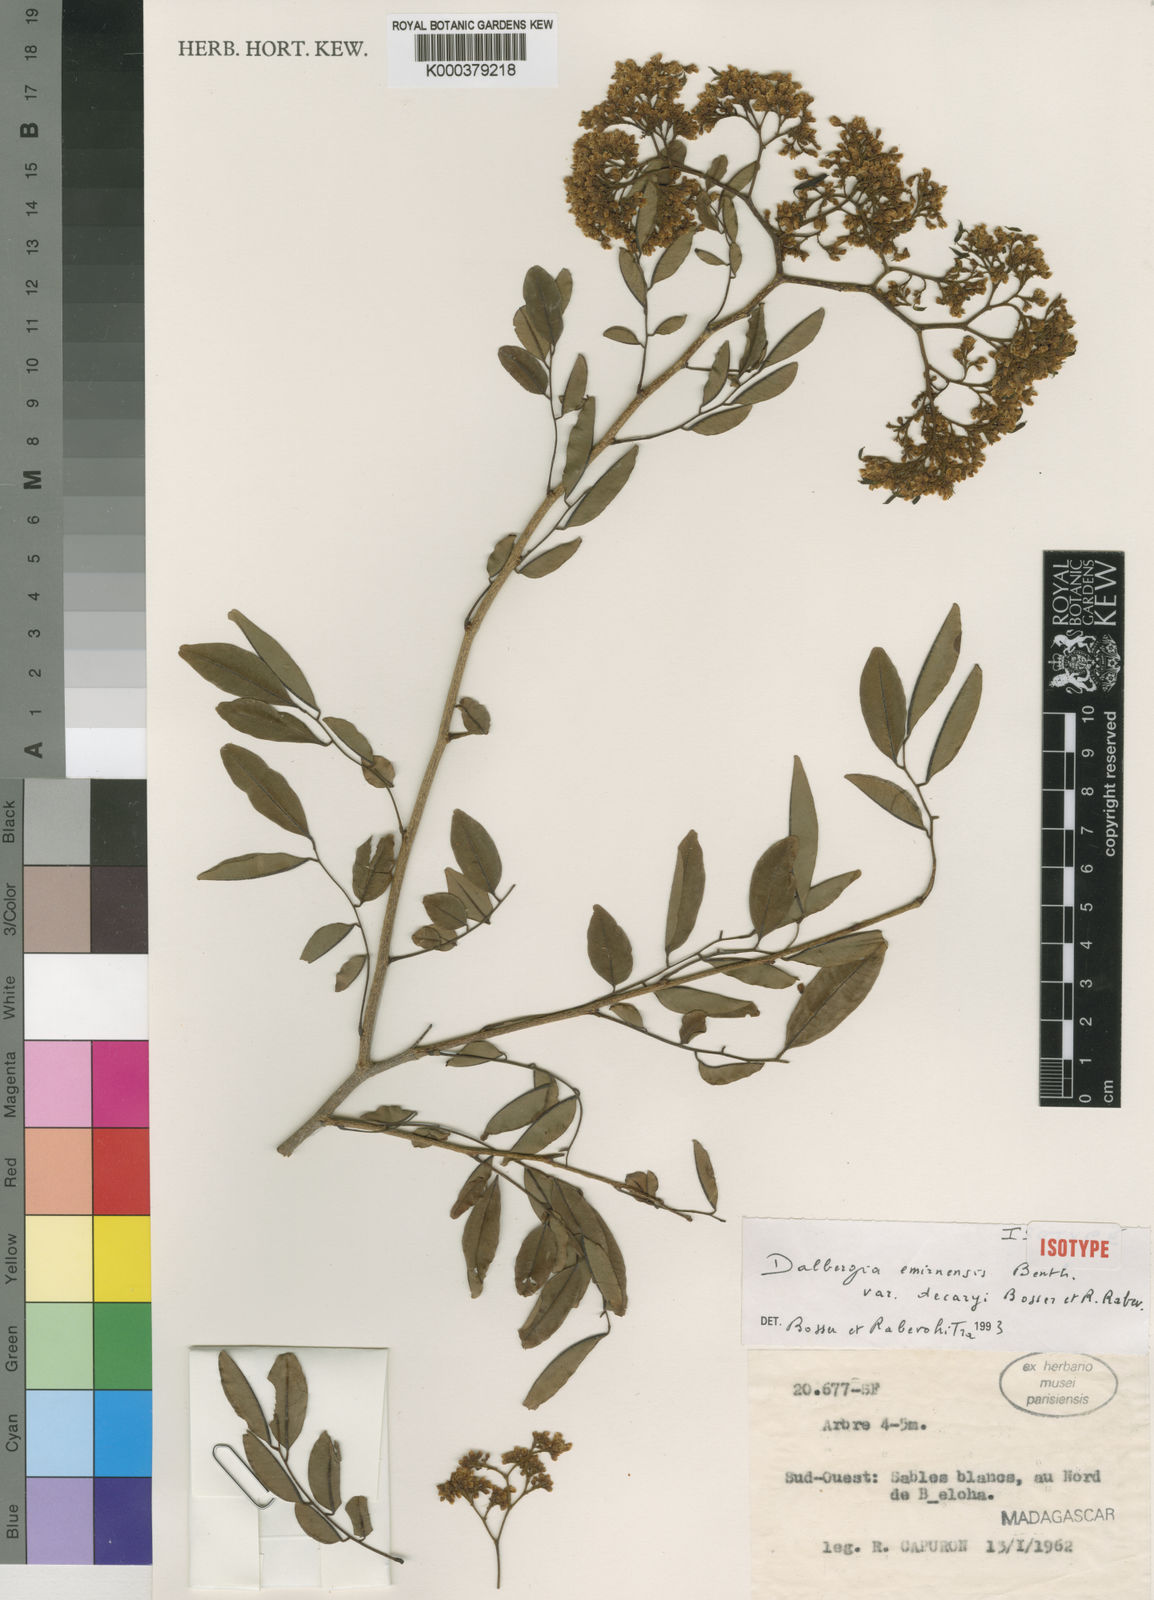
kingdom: Plantae
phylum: Tracheophyta
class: Magnoliopsida
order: Fabales
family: Fabaceae
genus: Dalbergia
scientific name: Dalbergia emirnensis
